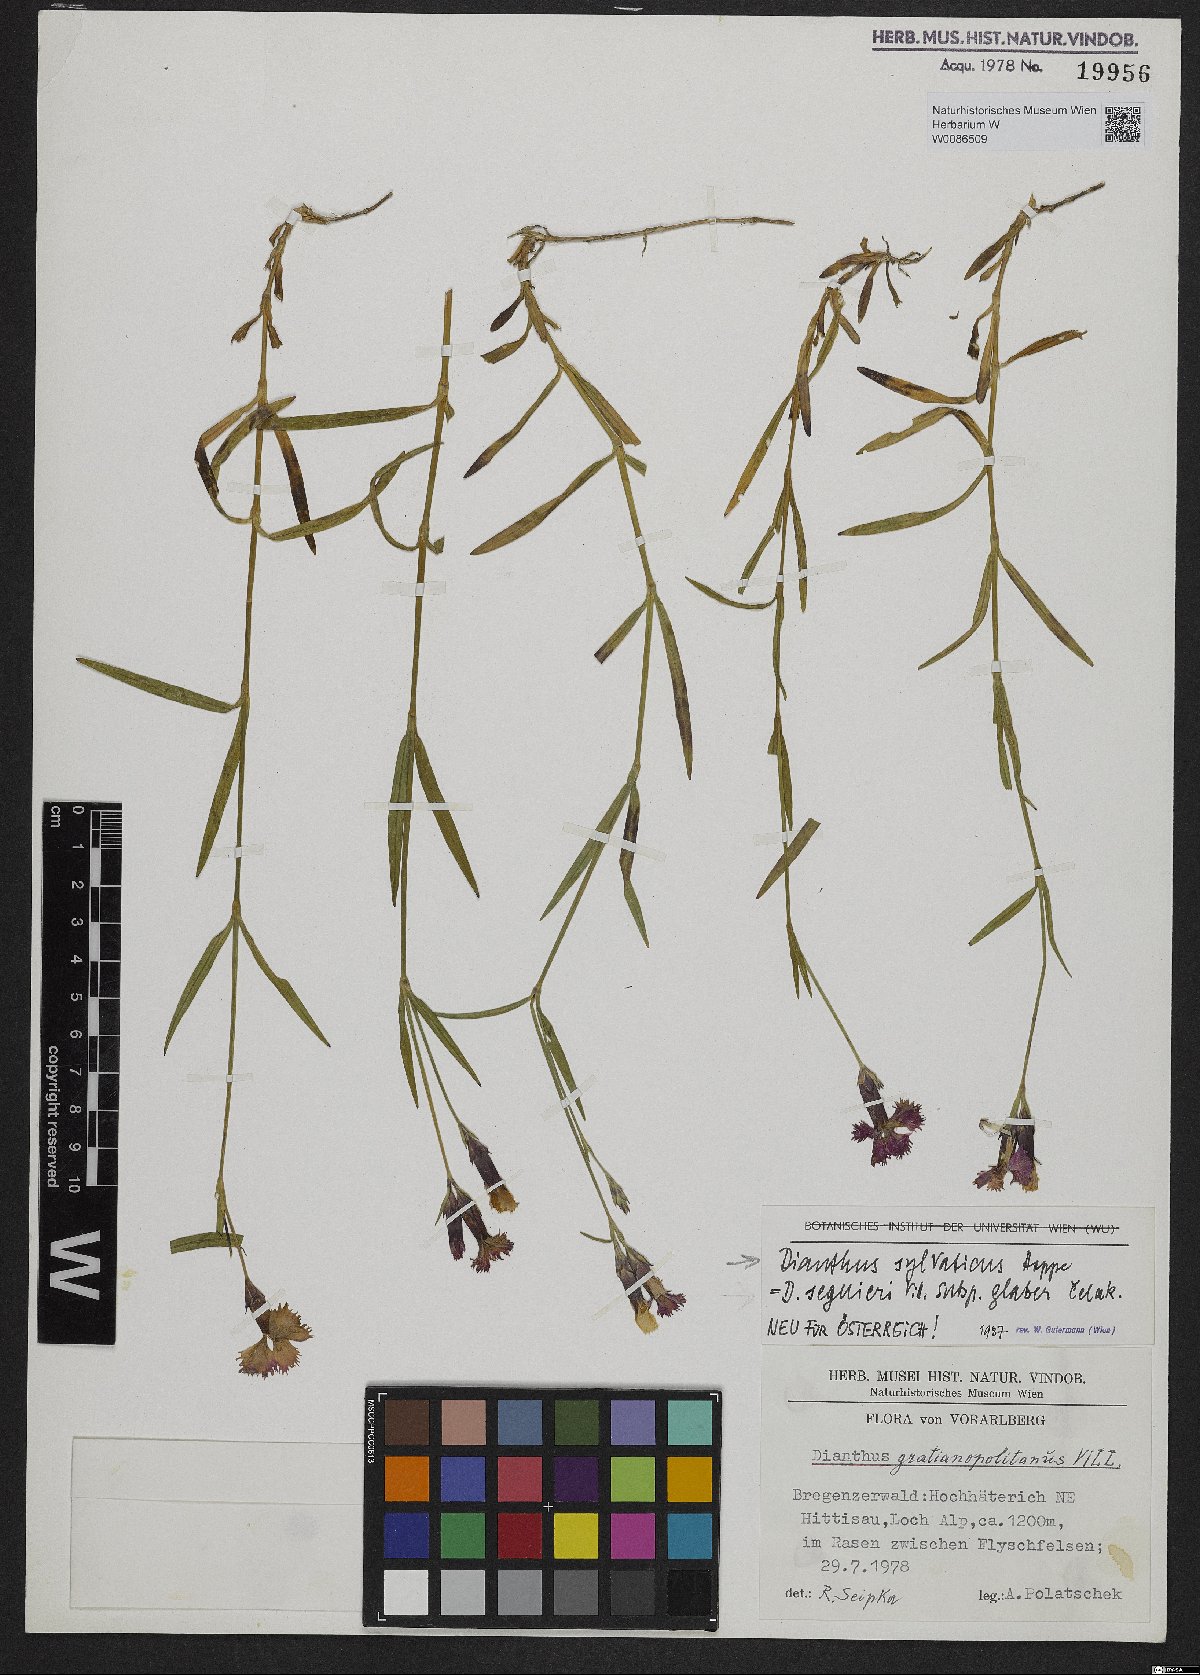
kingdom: Plantae
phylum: Tracheophyta
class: Magnoliopsida
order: Caryophyllales
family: Caryophyllaceae
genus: Dianthus
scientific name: Dianthus sylvaticus
